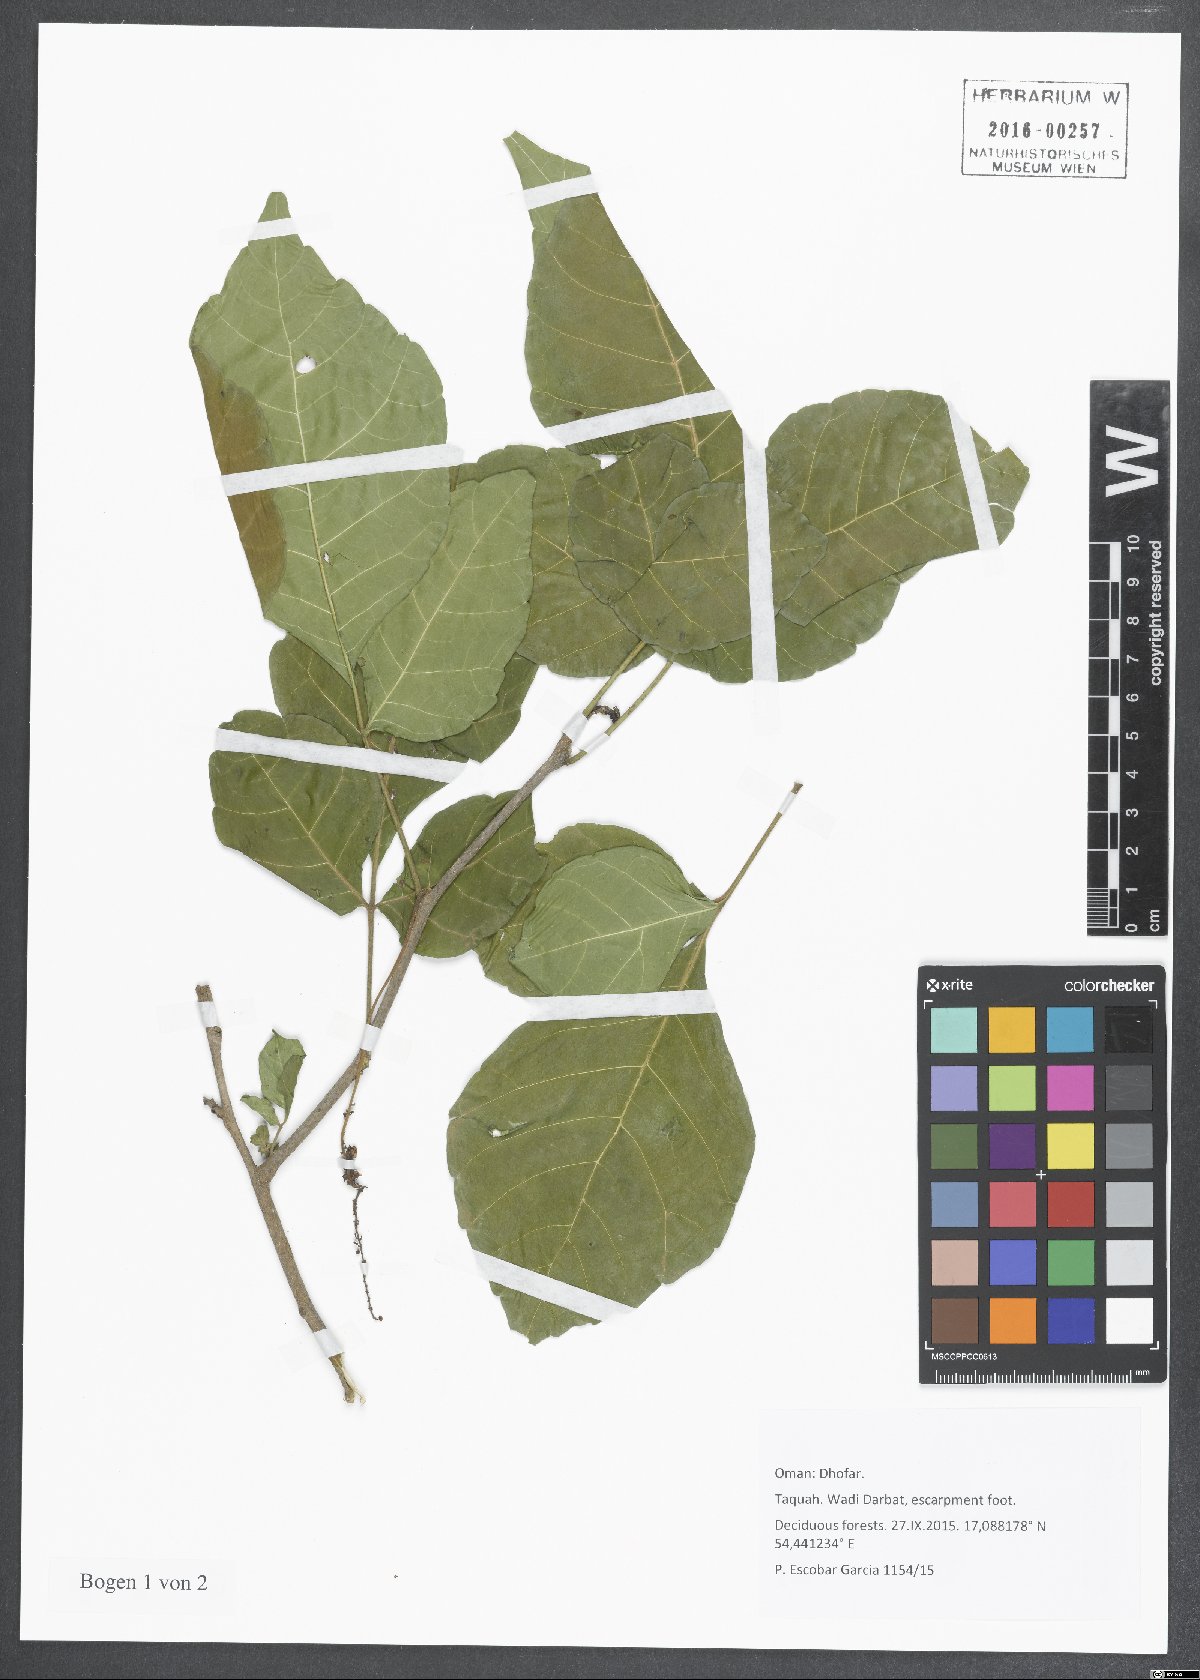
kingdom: Plantae
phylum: Tracheophyta
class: Magnoliopsida
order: Sapindales
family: Anacardiaceae
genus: Lannea
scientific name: Lannea
